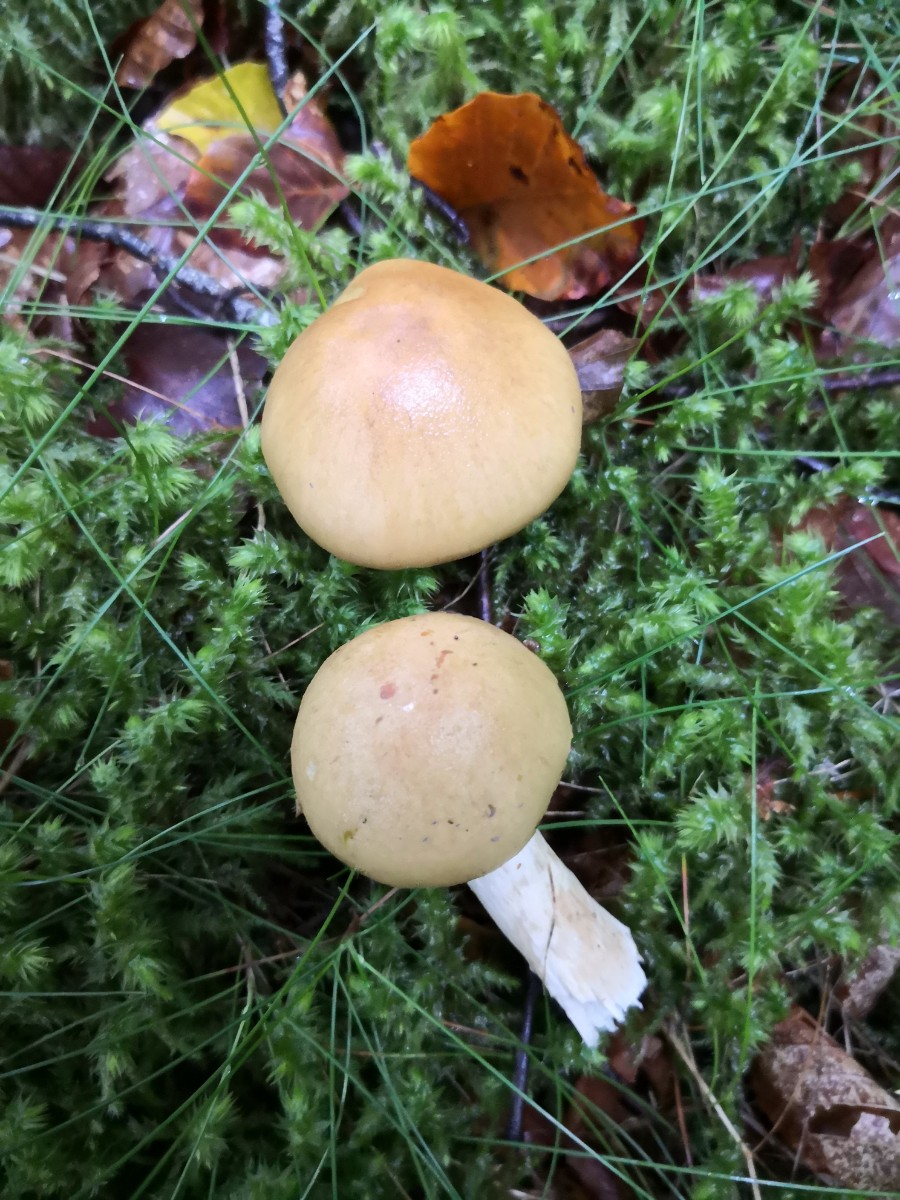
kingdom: Fungi
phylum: Basidiomycota
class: Agaricomycetes
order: Agaricales
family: Cortinariaceae
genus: Cortinarius
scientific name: Cortinarius delibutus
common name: gul slørhat
